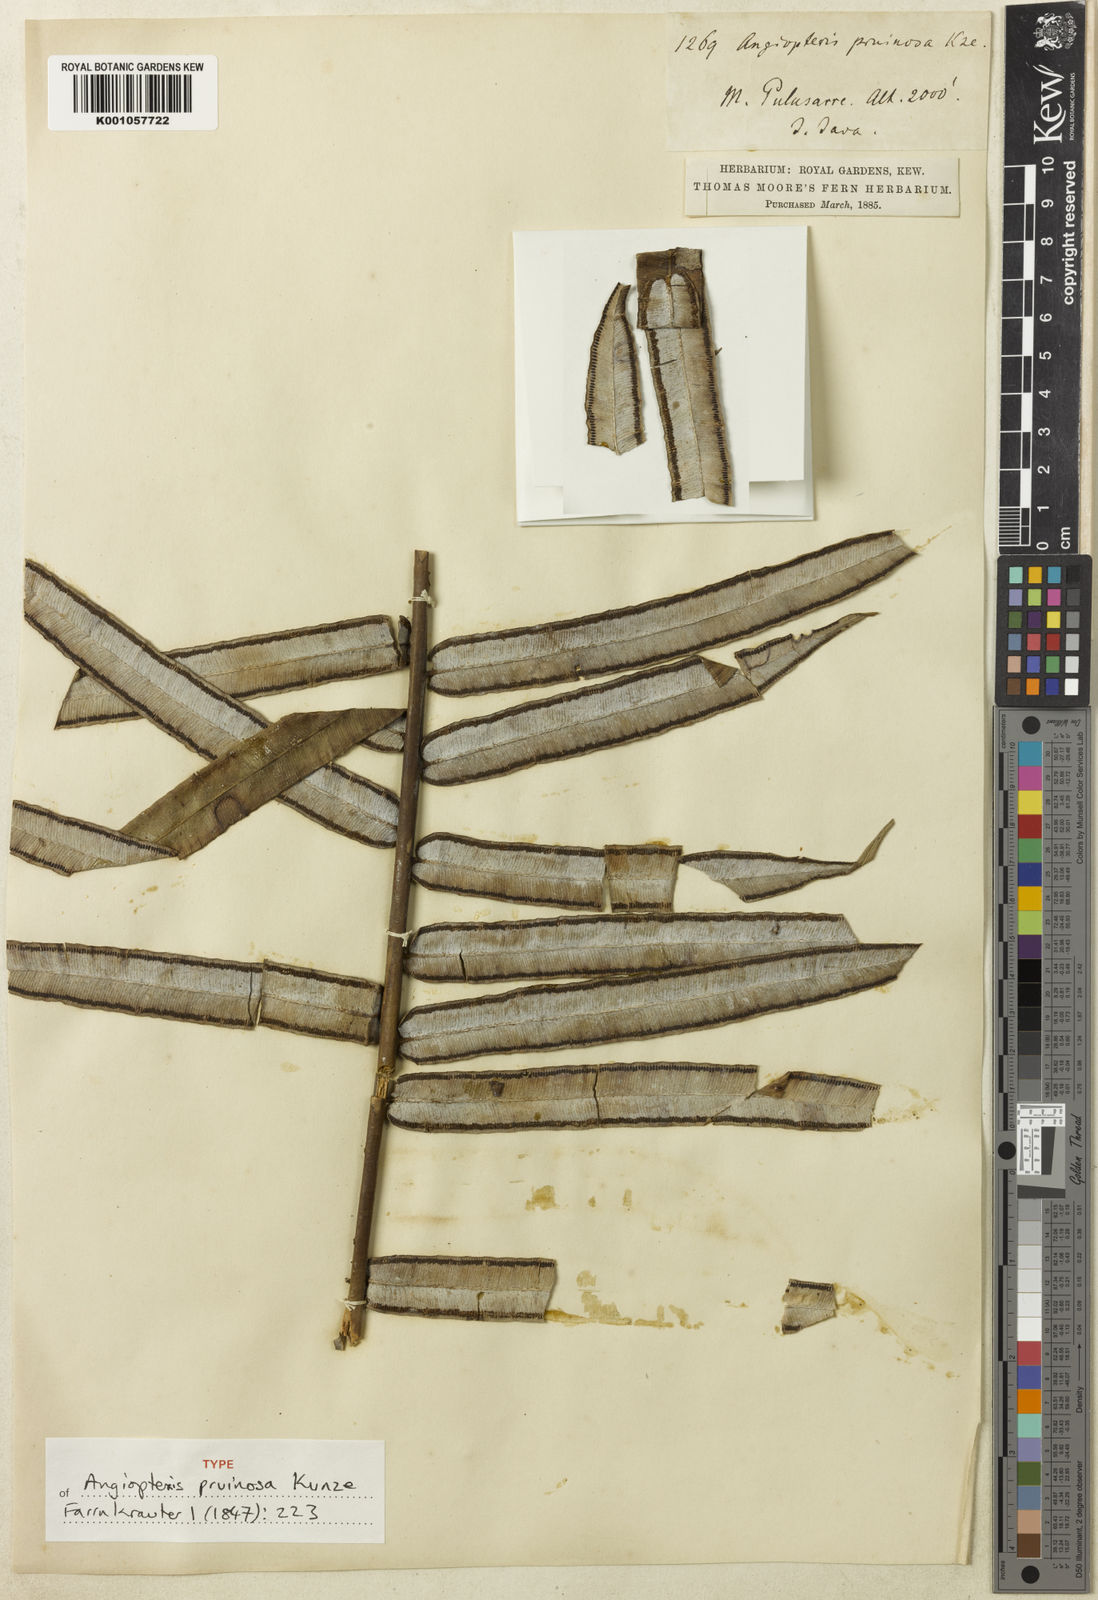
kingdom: Plantae
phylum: Tracheophyta
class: Polypodiopsida
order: Marattiales
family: Marattiaceae
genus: Angiopteris
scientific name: Angiopteris angustifolia
